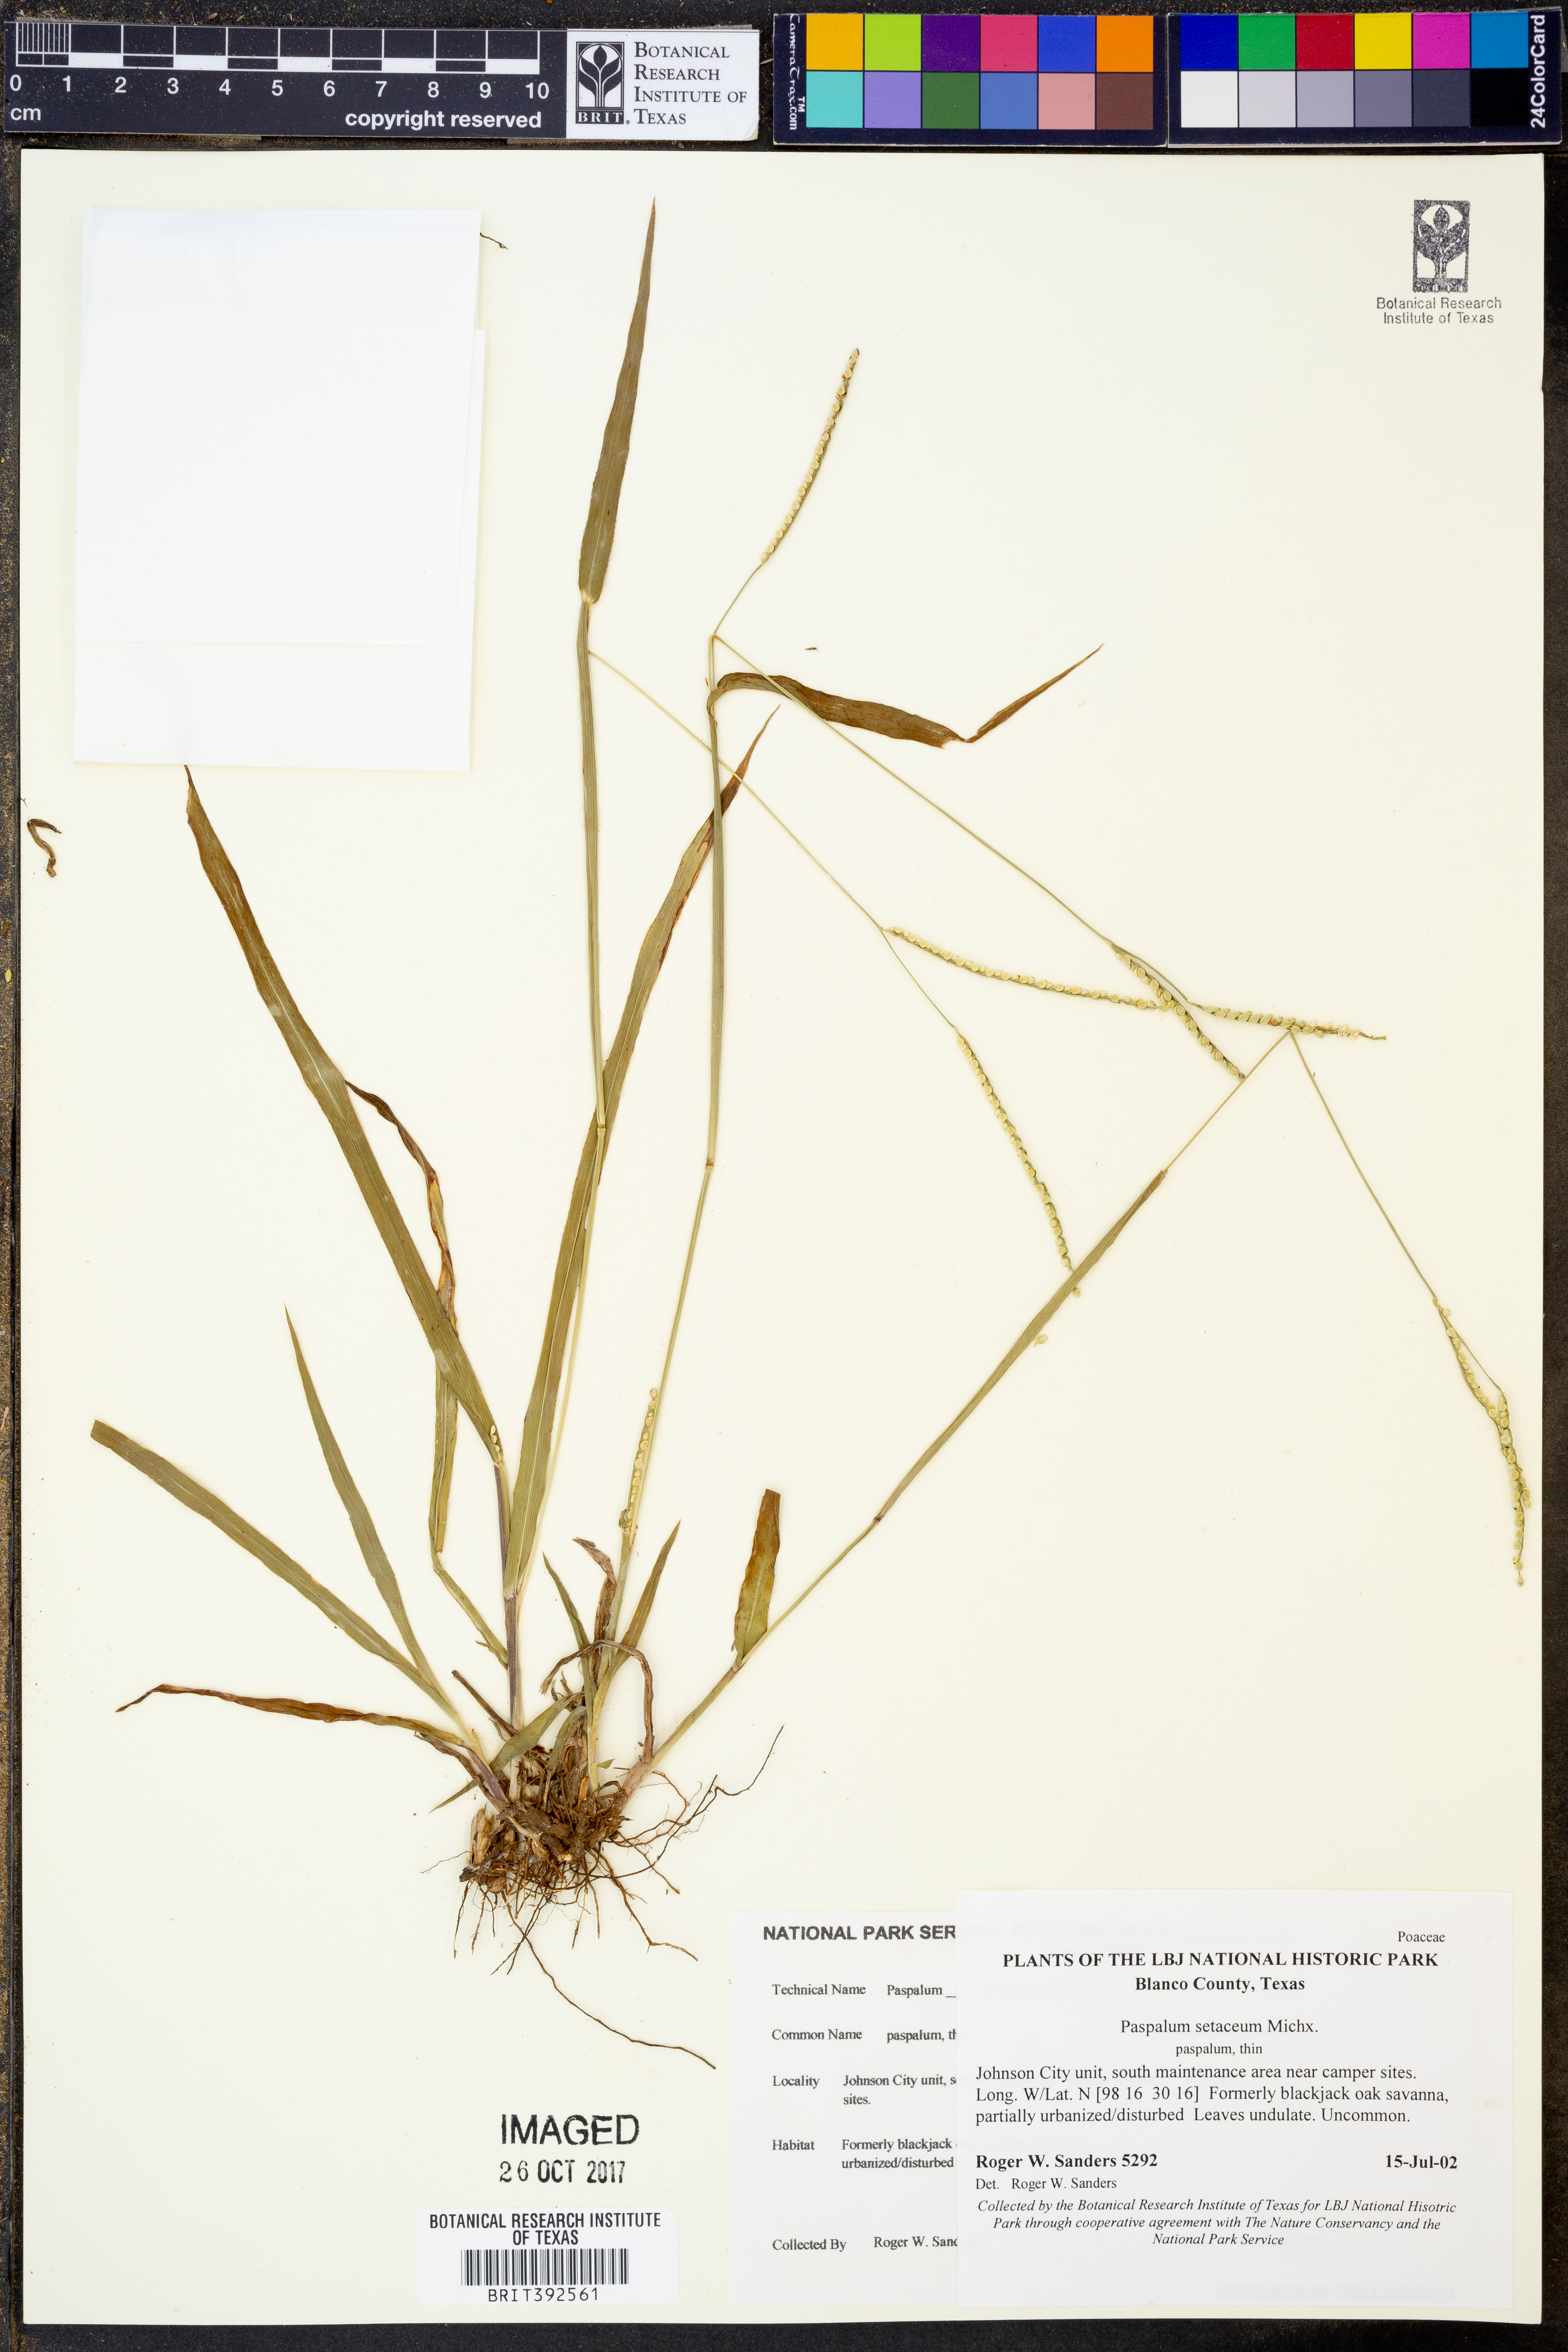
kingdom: Plantae
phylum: Tracheophyta
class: Liliopsida
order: Poales
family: Poaceae
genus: Paspalum
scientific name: Paspalum setaceum
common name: Slender paspalum
